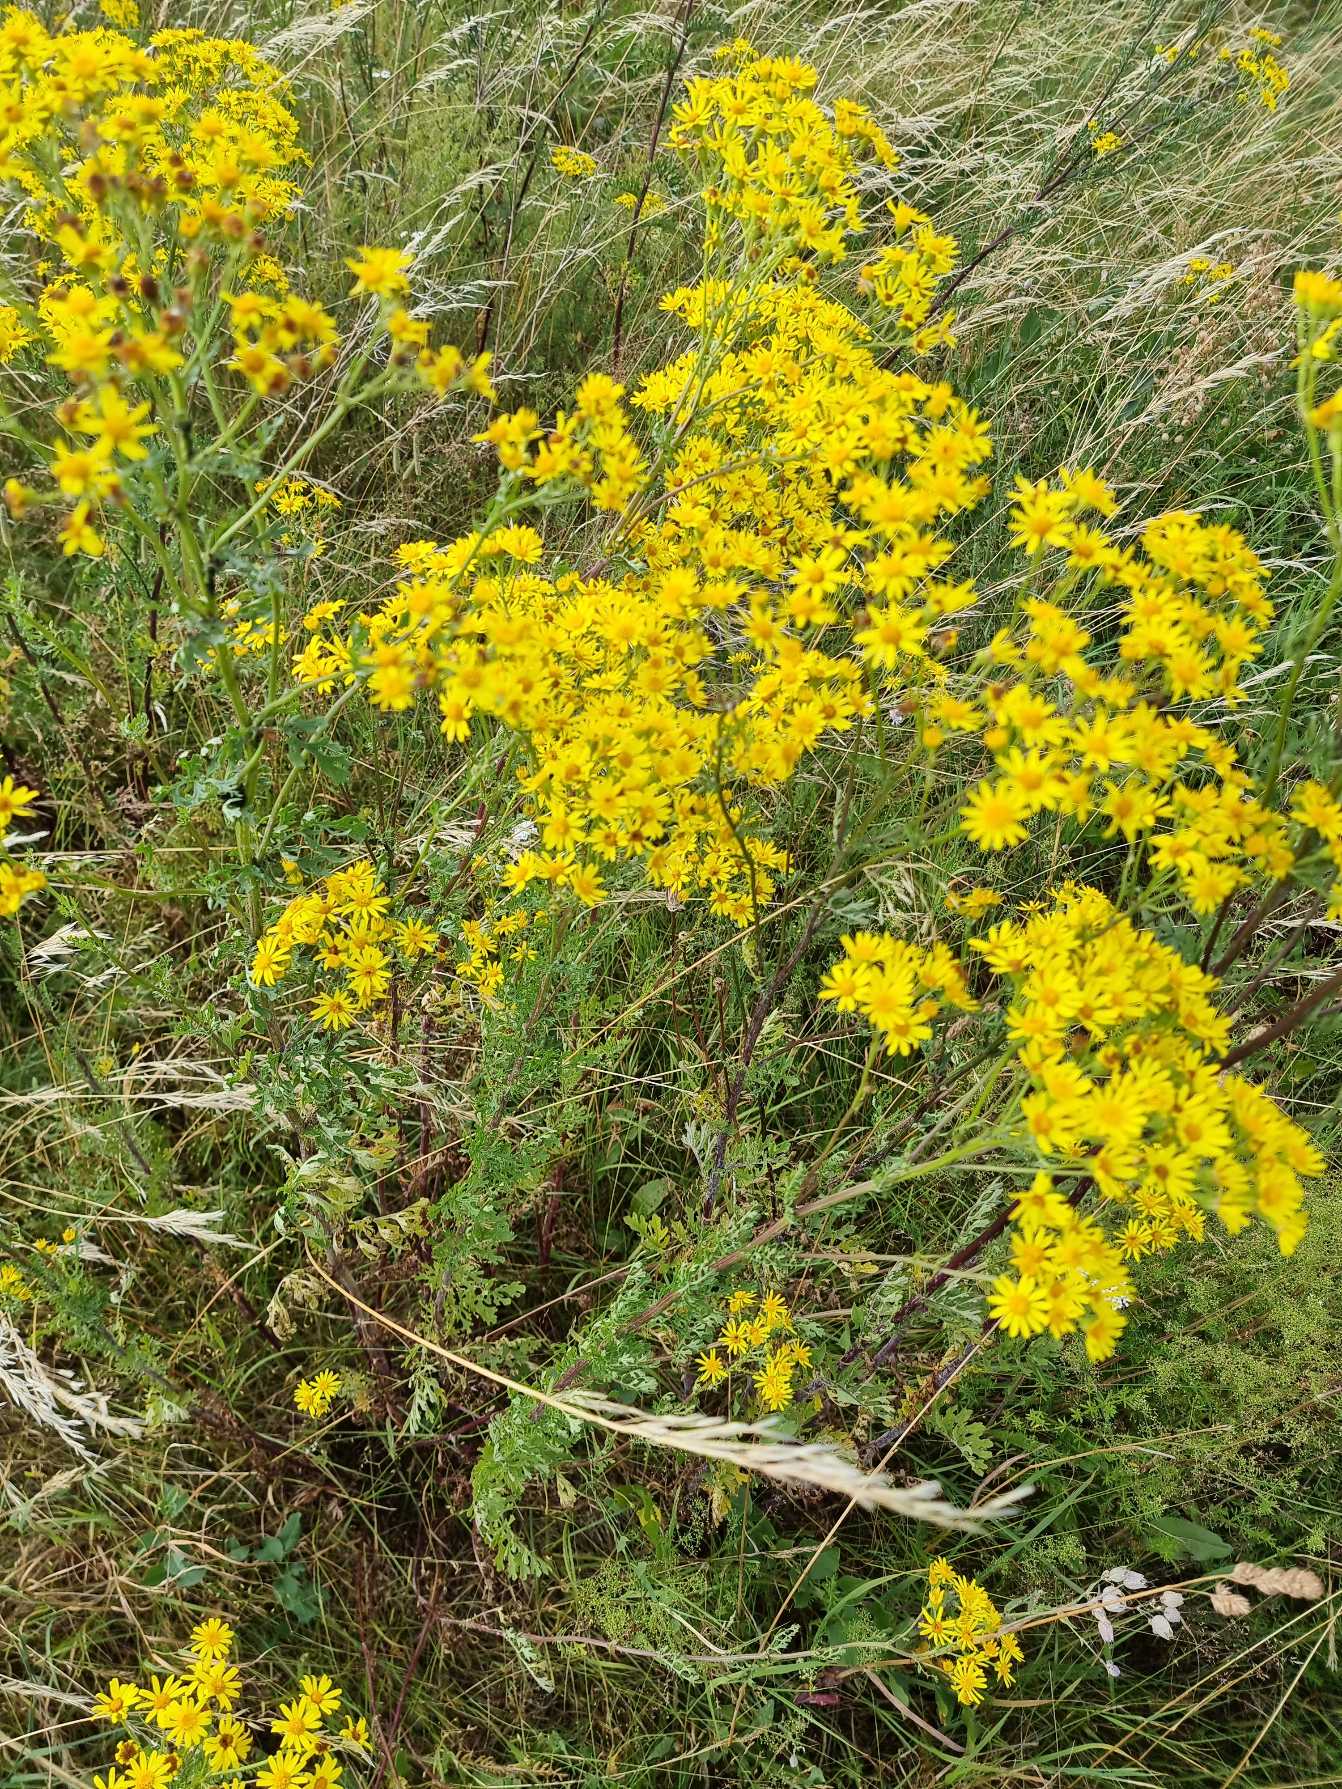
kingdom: Plantae
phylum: Tracheophyta
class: Magnoliopsida
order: Asterales
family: Asteraceae
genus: Jacobaea
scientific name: Jacobaea vulgaris
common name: Eng-brandbæger
